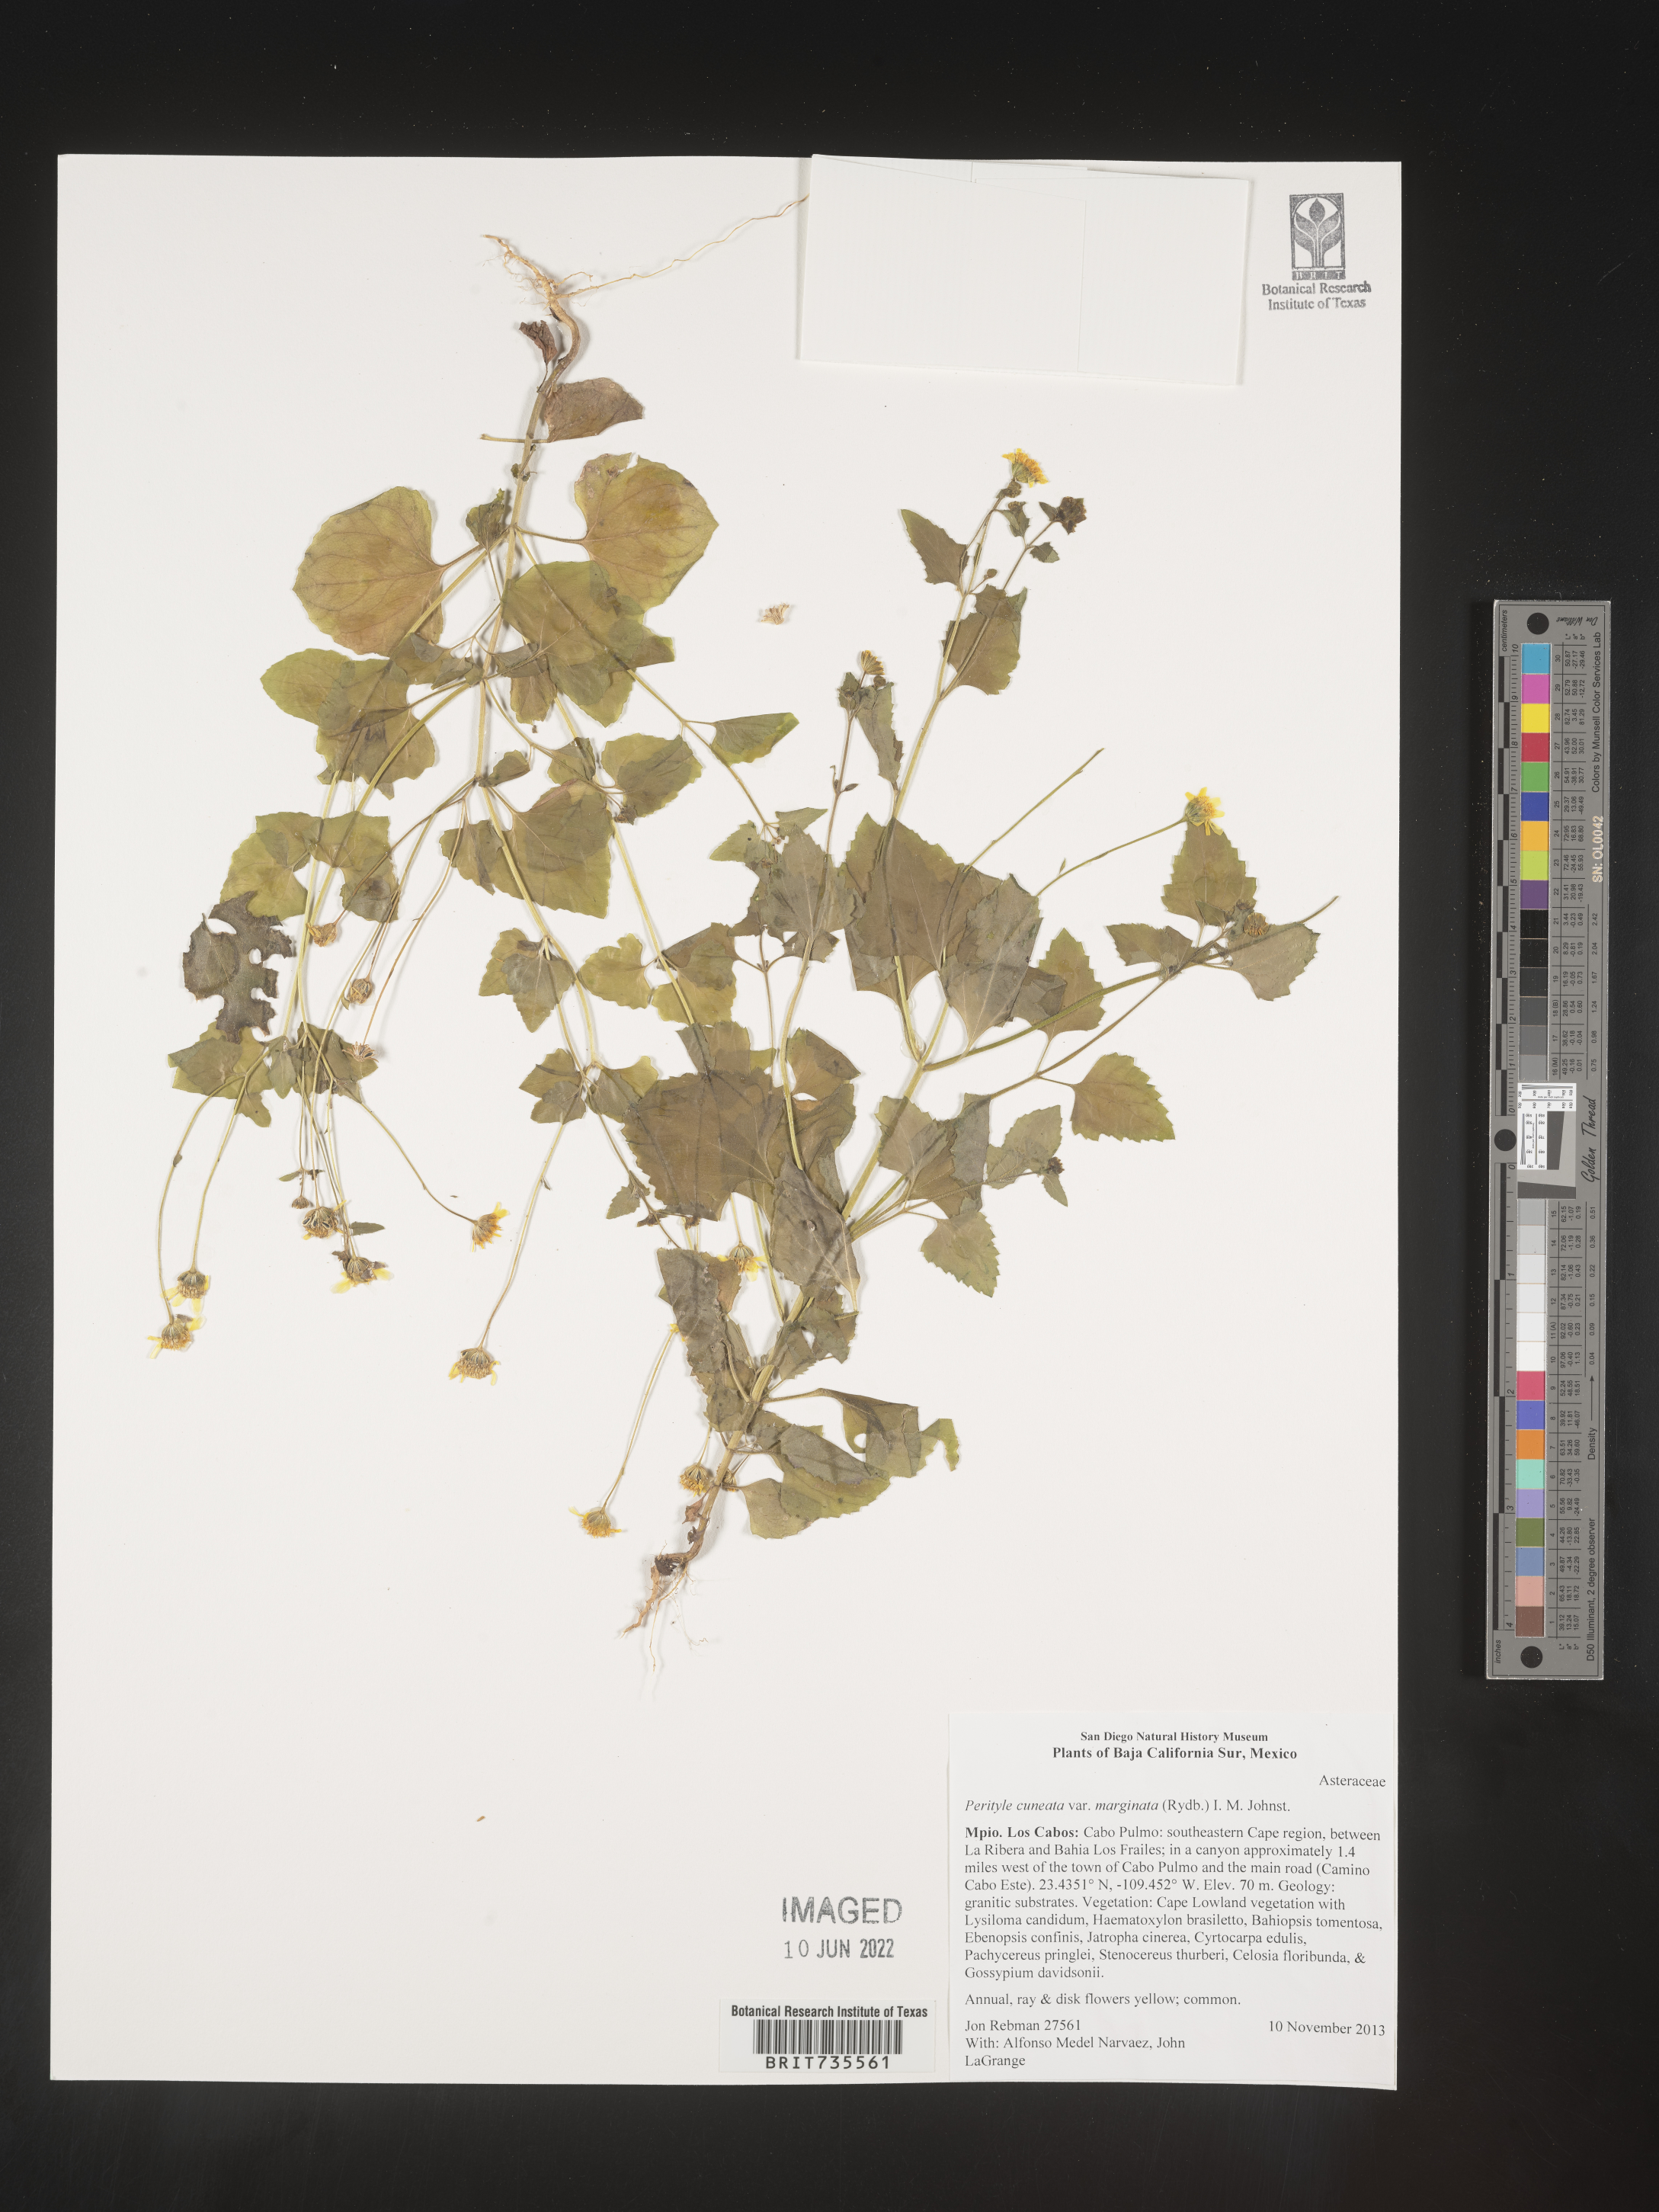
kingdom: Plantae
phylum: Tracheophyta
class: Magnoliopsida
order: Asterales
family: Asteraceae
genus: Perityle
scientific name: Perityle
